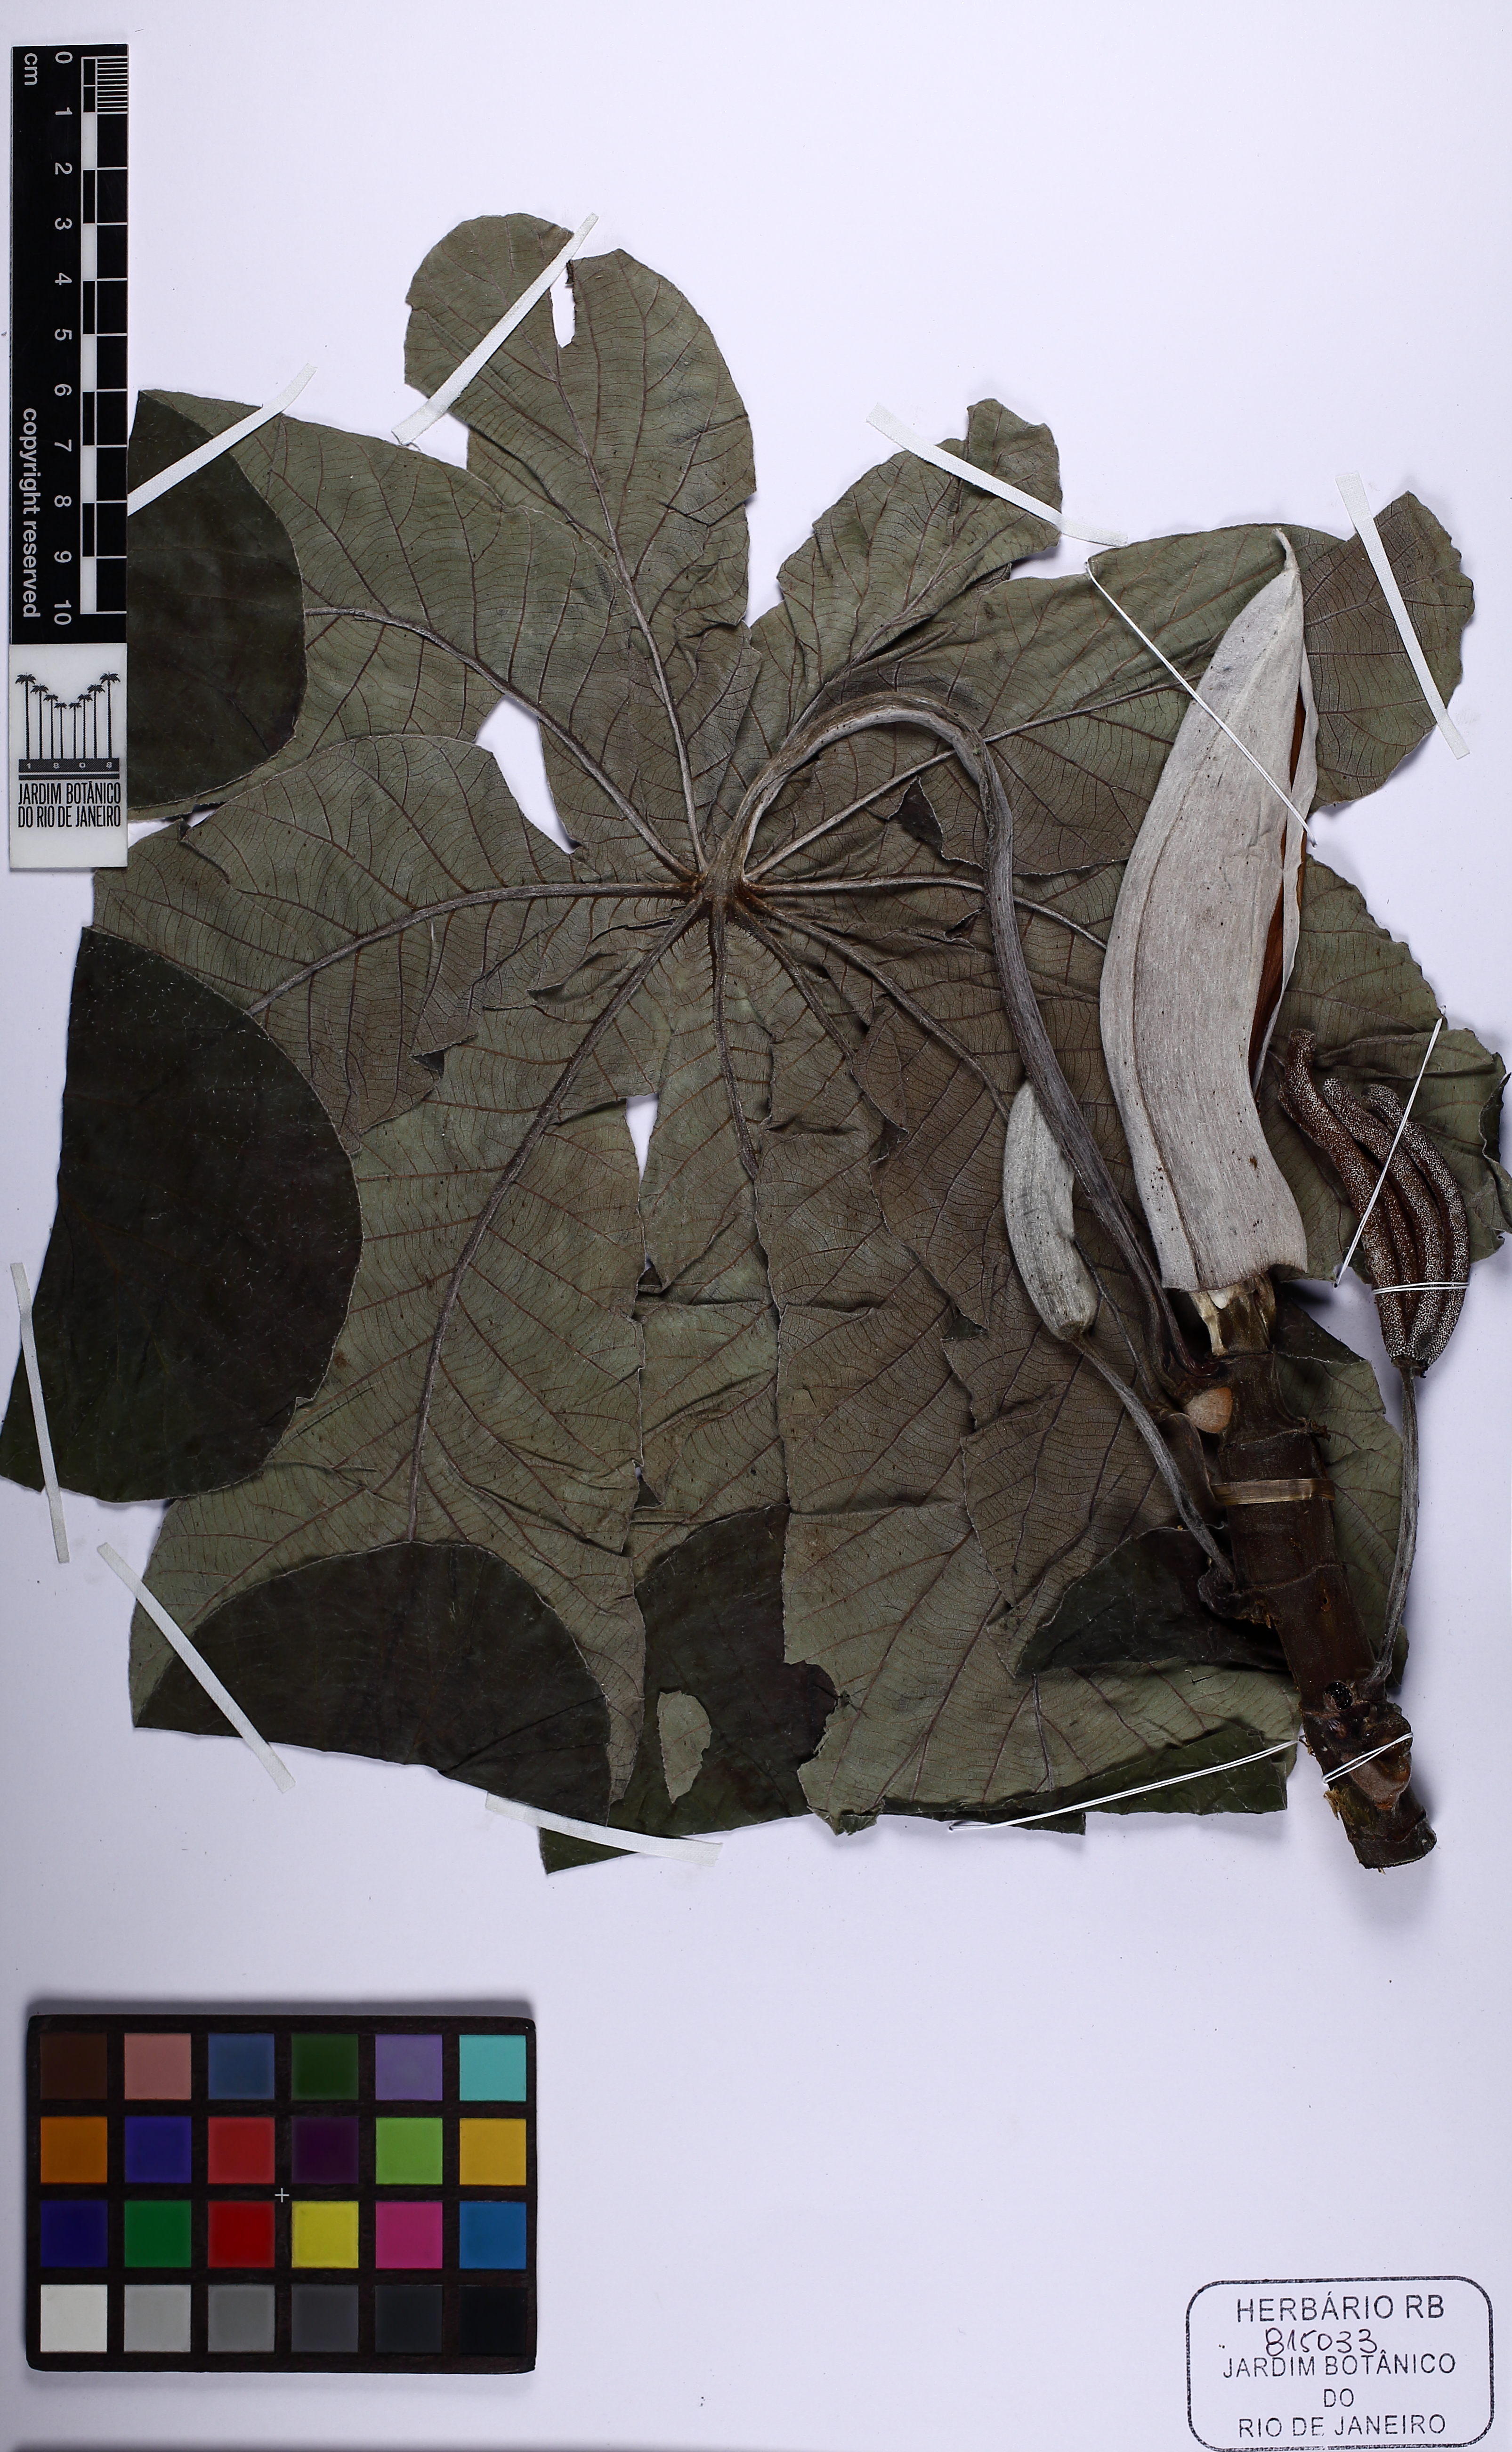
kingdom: Plantae
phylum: Tracheophyta
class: Magnoliopsida
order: Rosales
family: Urticaceae
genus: Cecropia
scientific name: Cecropia pachystachya
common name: Ambay pumpwood
